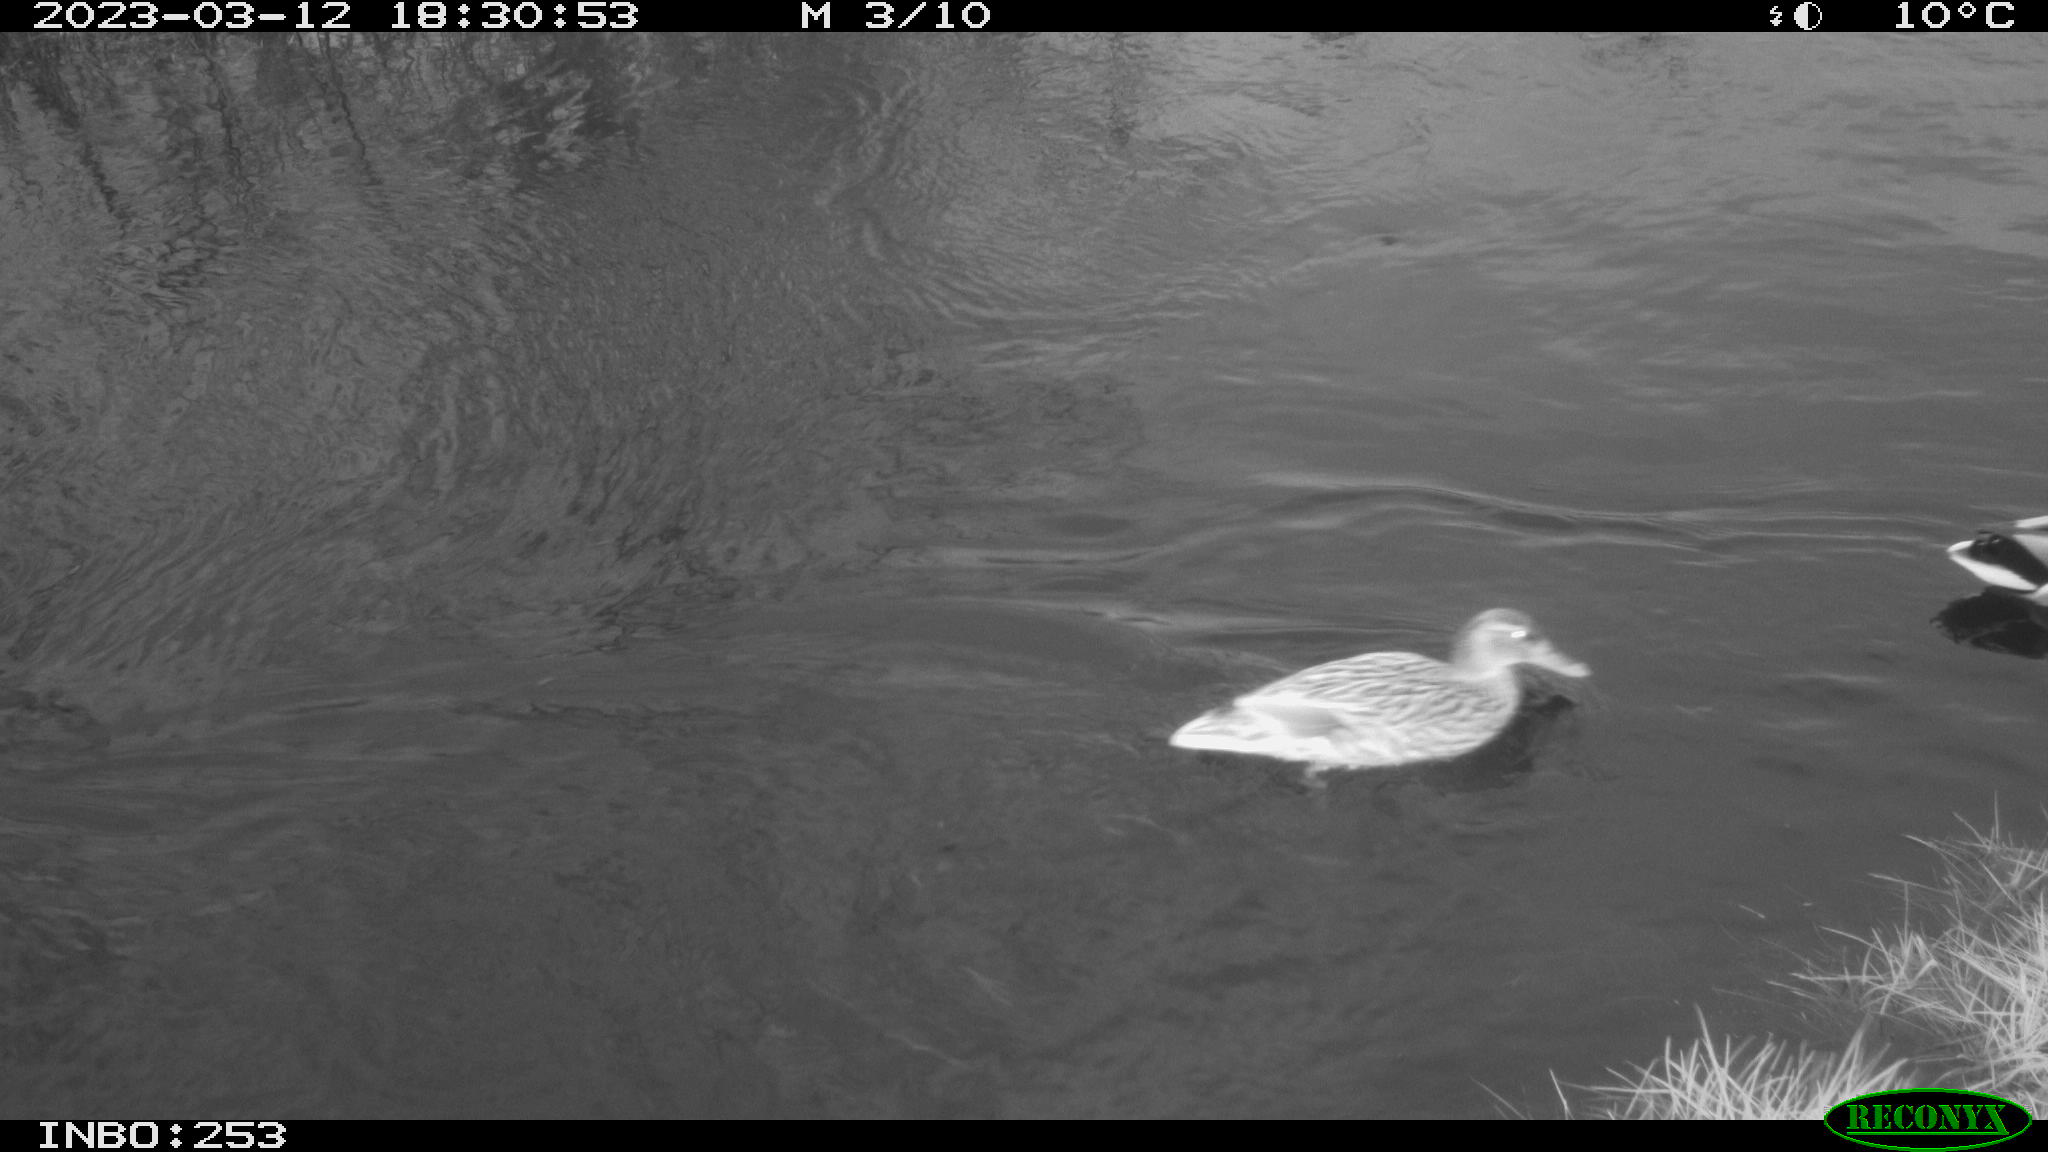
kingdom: Animalia
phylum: Chordata
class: Aves
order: Anseriformes
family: Anatidae
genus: Anas
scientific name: Anas
